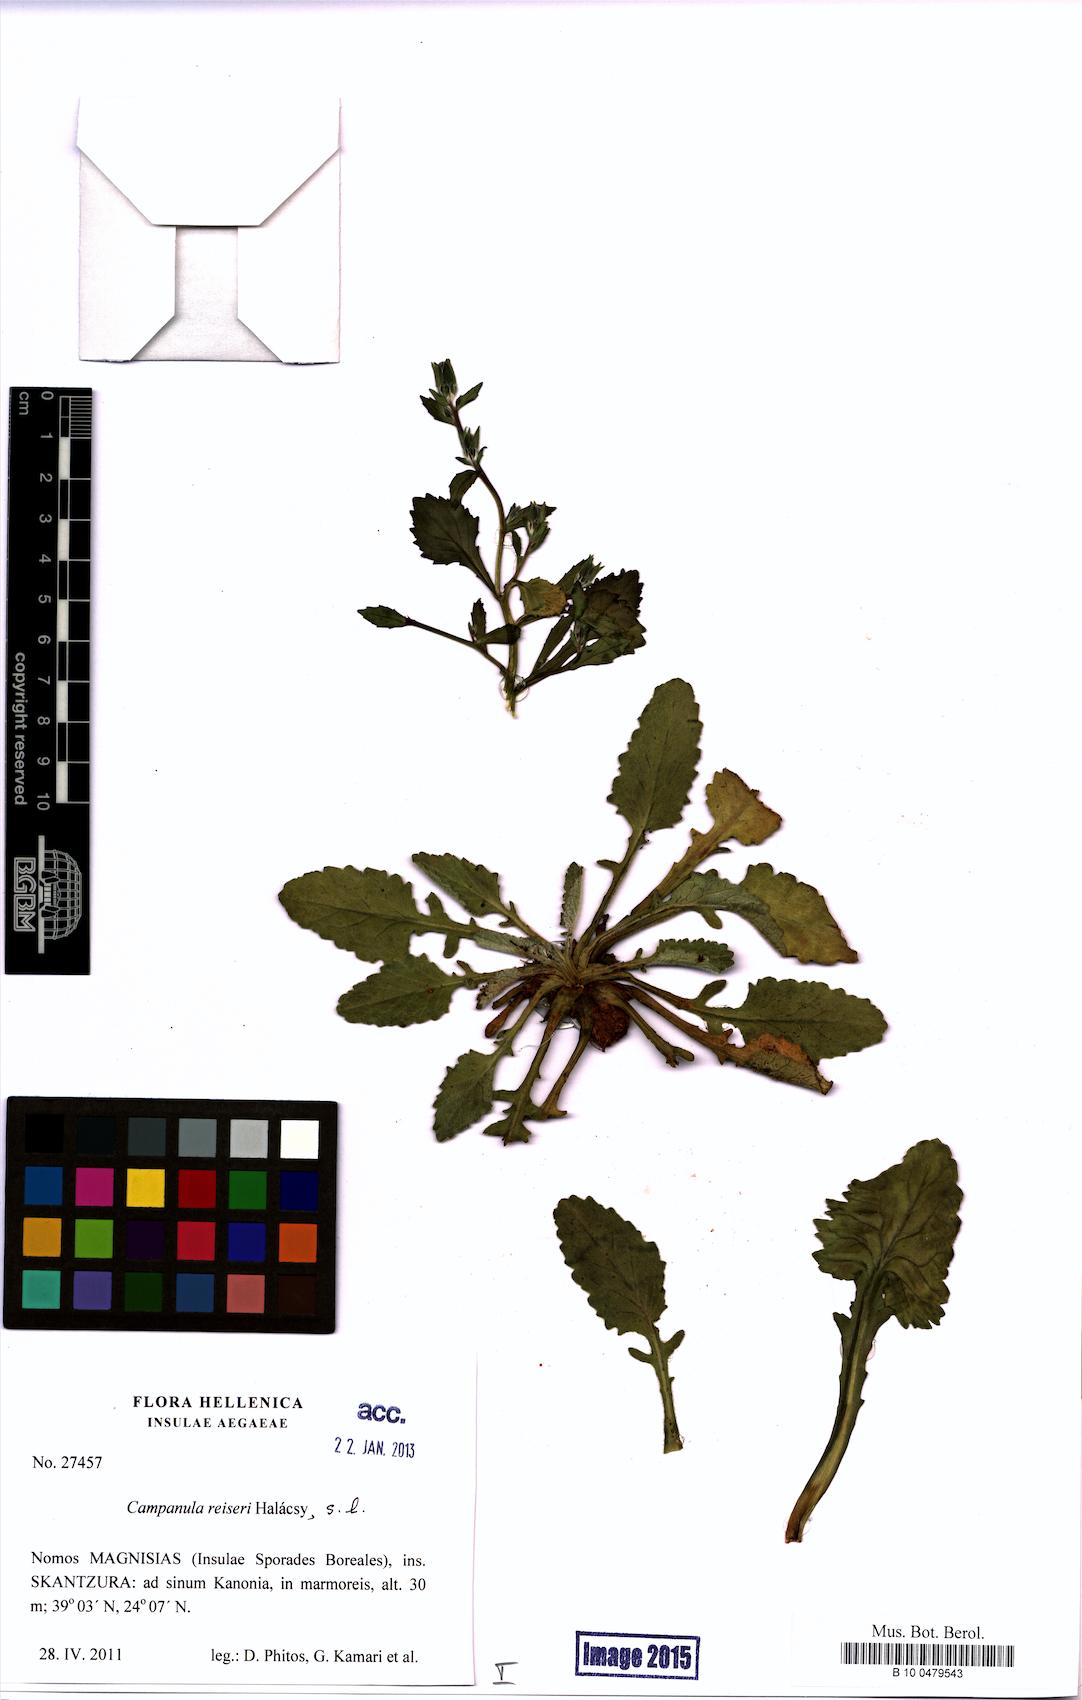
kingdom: Plantae
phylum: Tracheophyta
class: Magnoliopsida
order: Asterales
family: Campanulaceae
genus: Campanula
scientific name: Campanula reiseri
